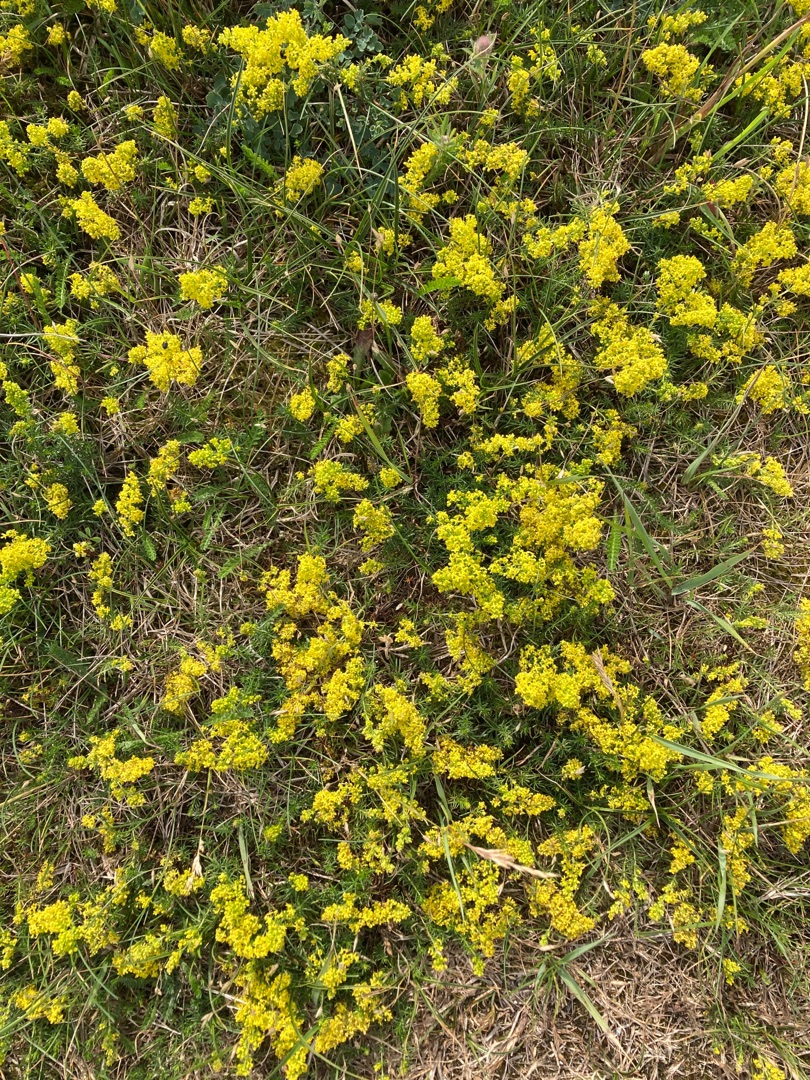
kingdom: Plantae
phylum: Tracheophyta
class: Magnoliopsida
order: Gentianales
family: Rubiaceae
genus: Galium
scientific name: Galium verum
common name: Gul snerre
